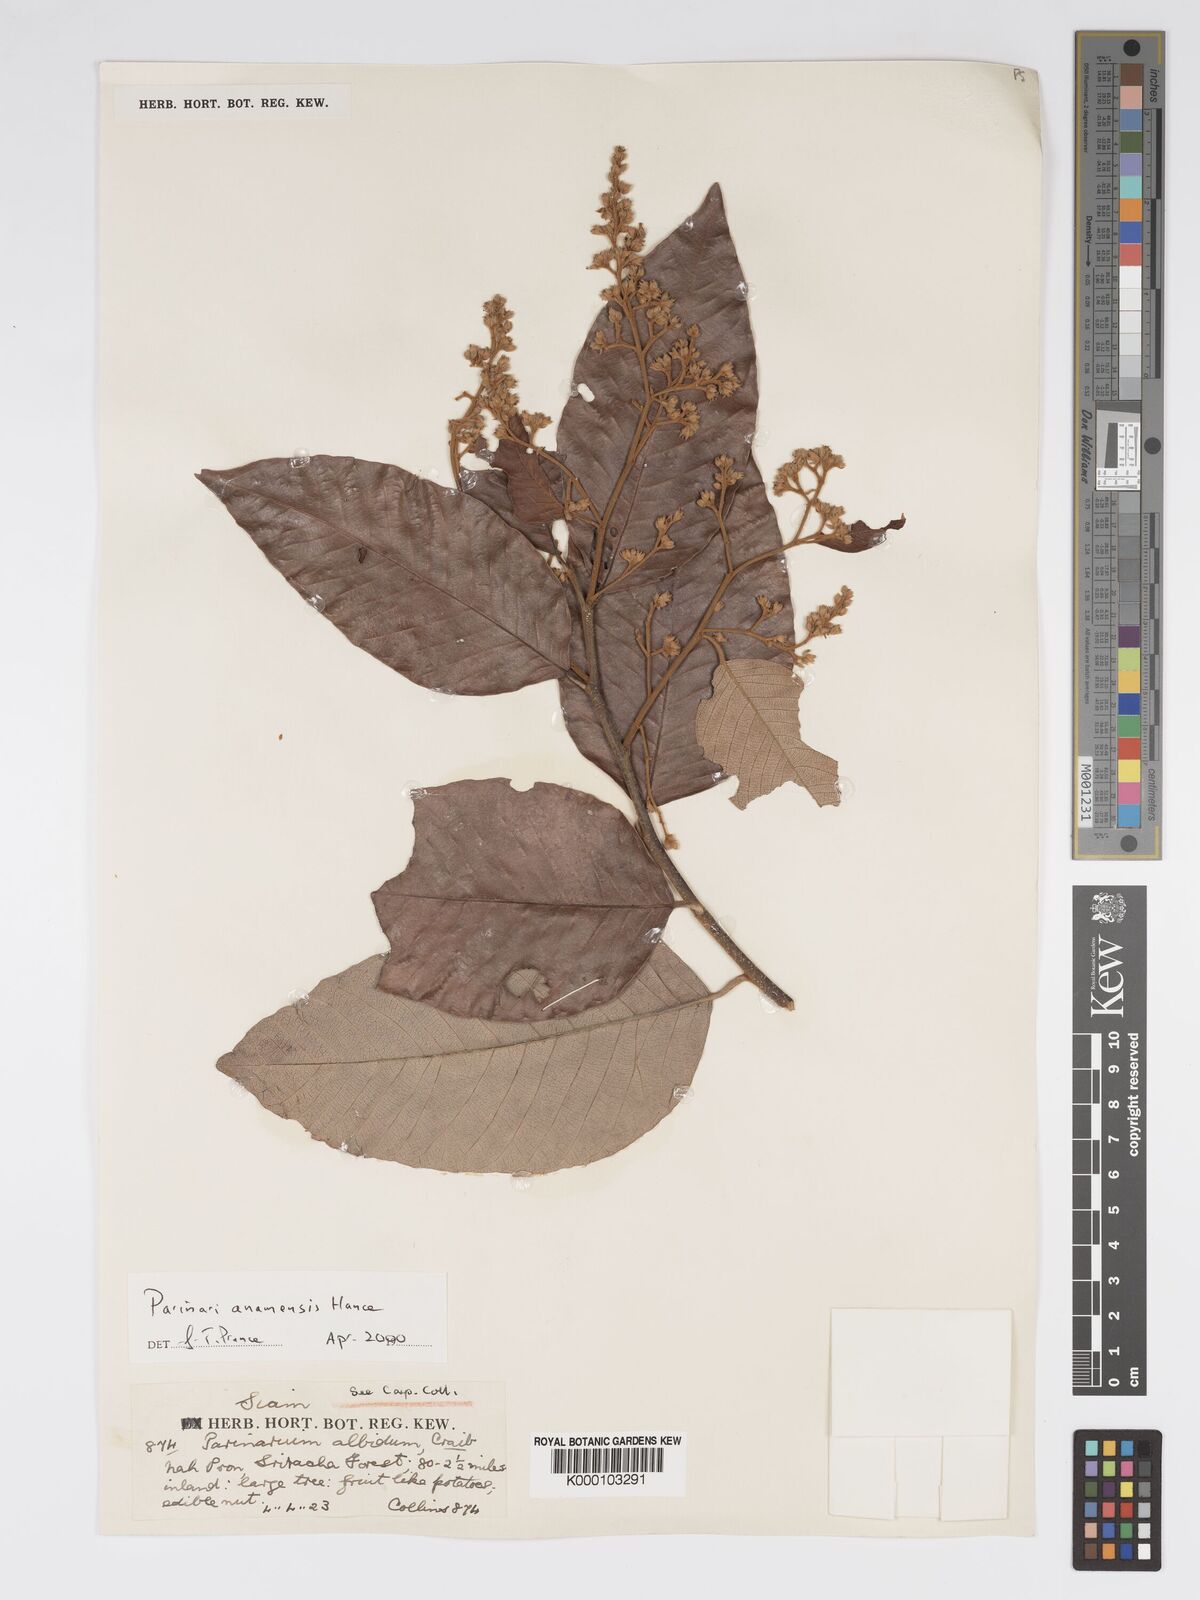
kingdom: Plantae
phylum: Tracheophyta
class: Magnoliopsida
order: Malpighiales
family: Chrysobalanaceae
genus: Parinari
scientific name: Parinari anamensis
